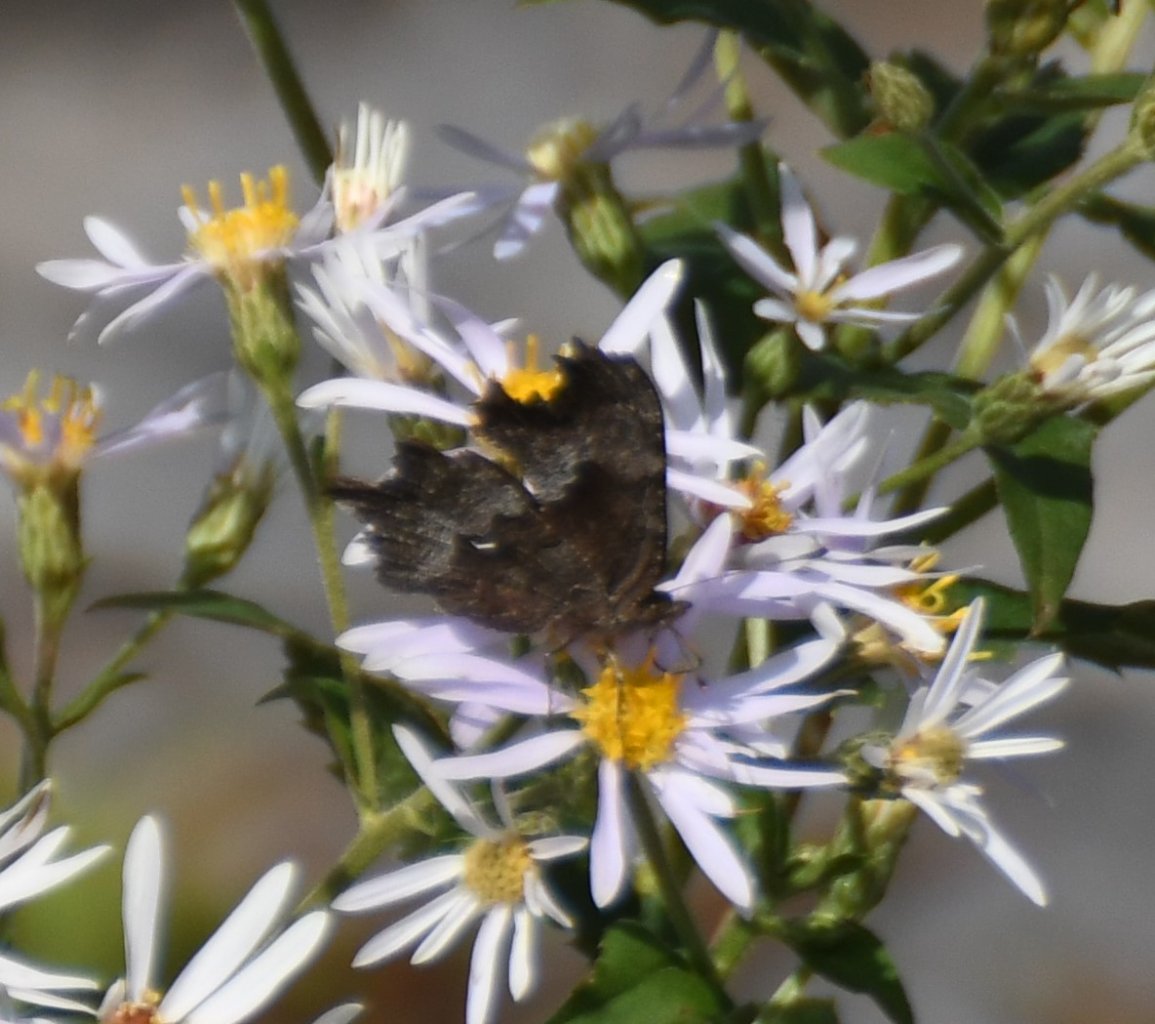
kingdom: Animalia
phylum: Arthropoda
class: Insecta
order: Lepidoptera
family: Nymphalidae
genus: Polygonia
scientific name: Polygonia gracilis
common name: Hoary Comma
